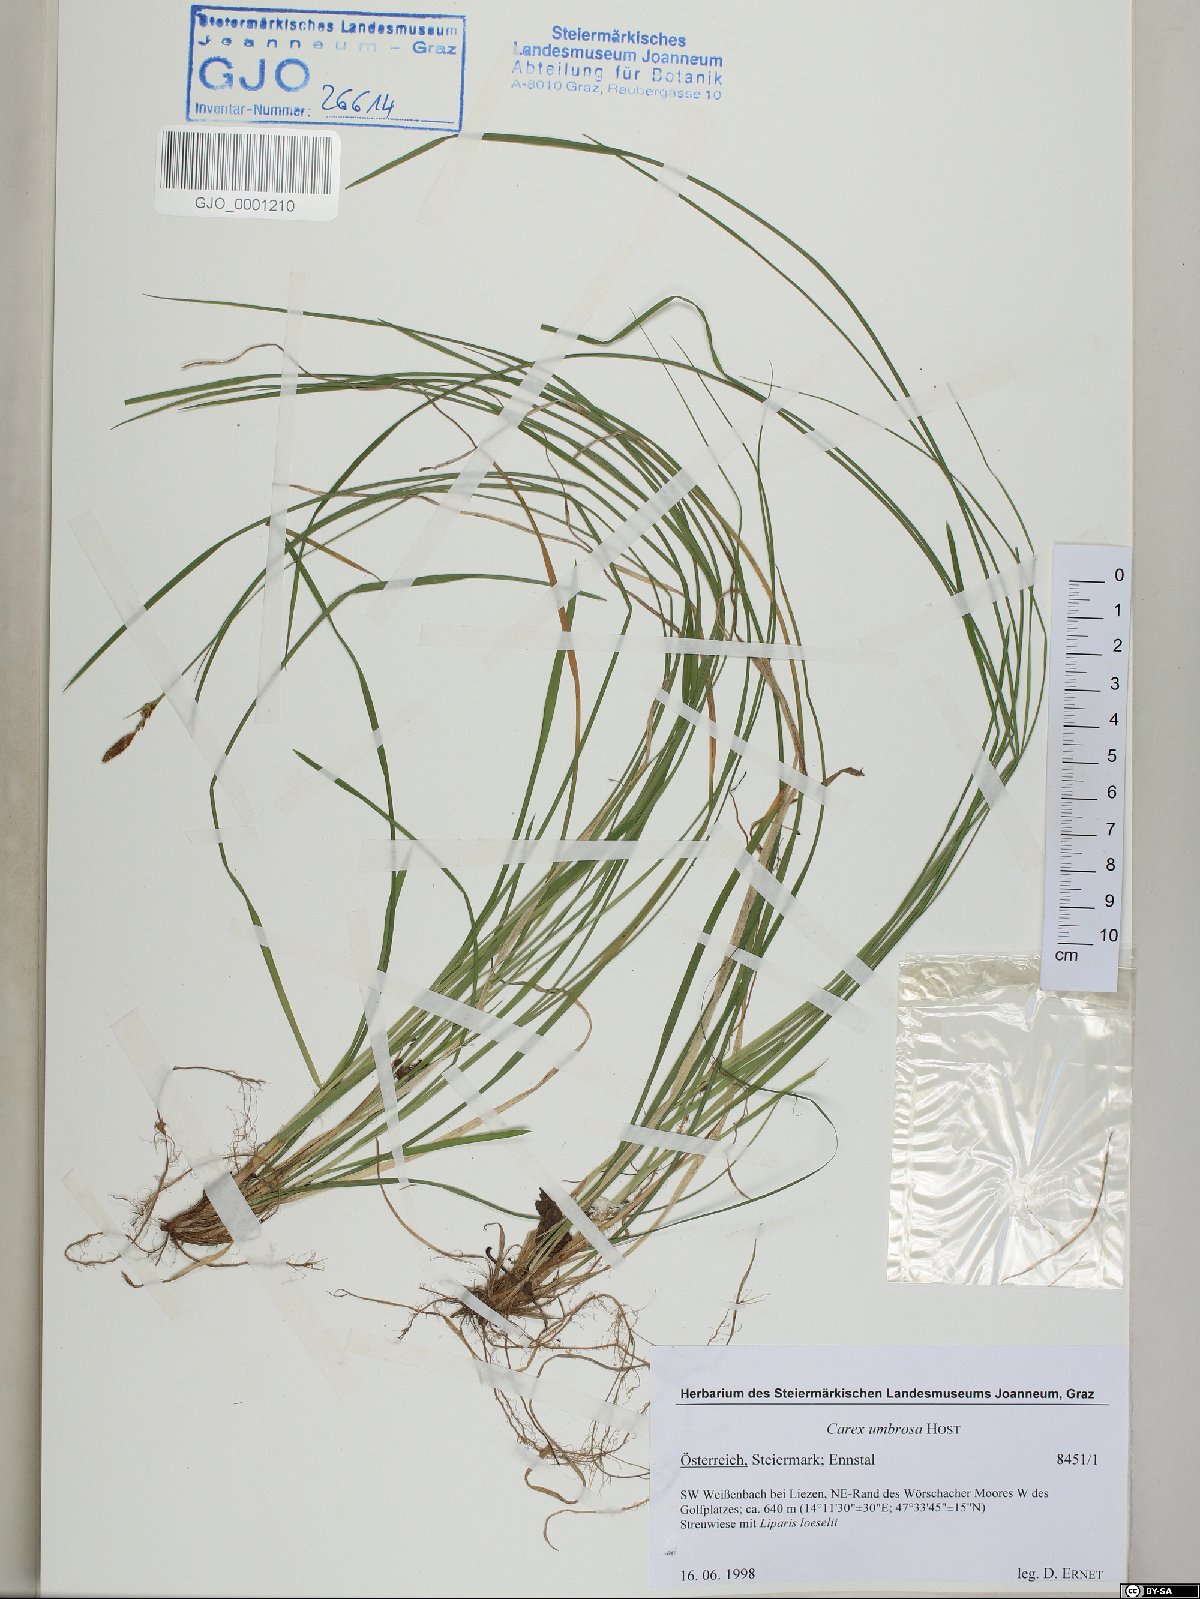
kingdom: Plantae
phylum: Tracheophyta
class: Liliopsida
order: Poales
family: Cyperaceae
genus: Carex
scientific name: Carex umbrosa
